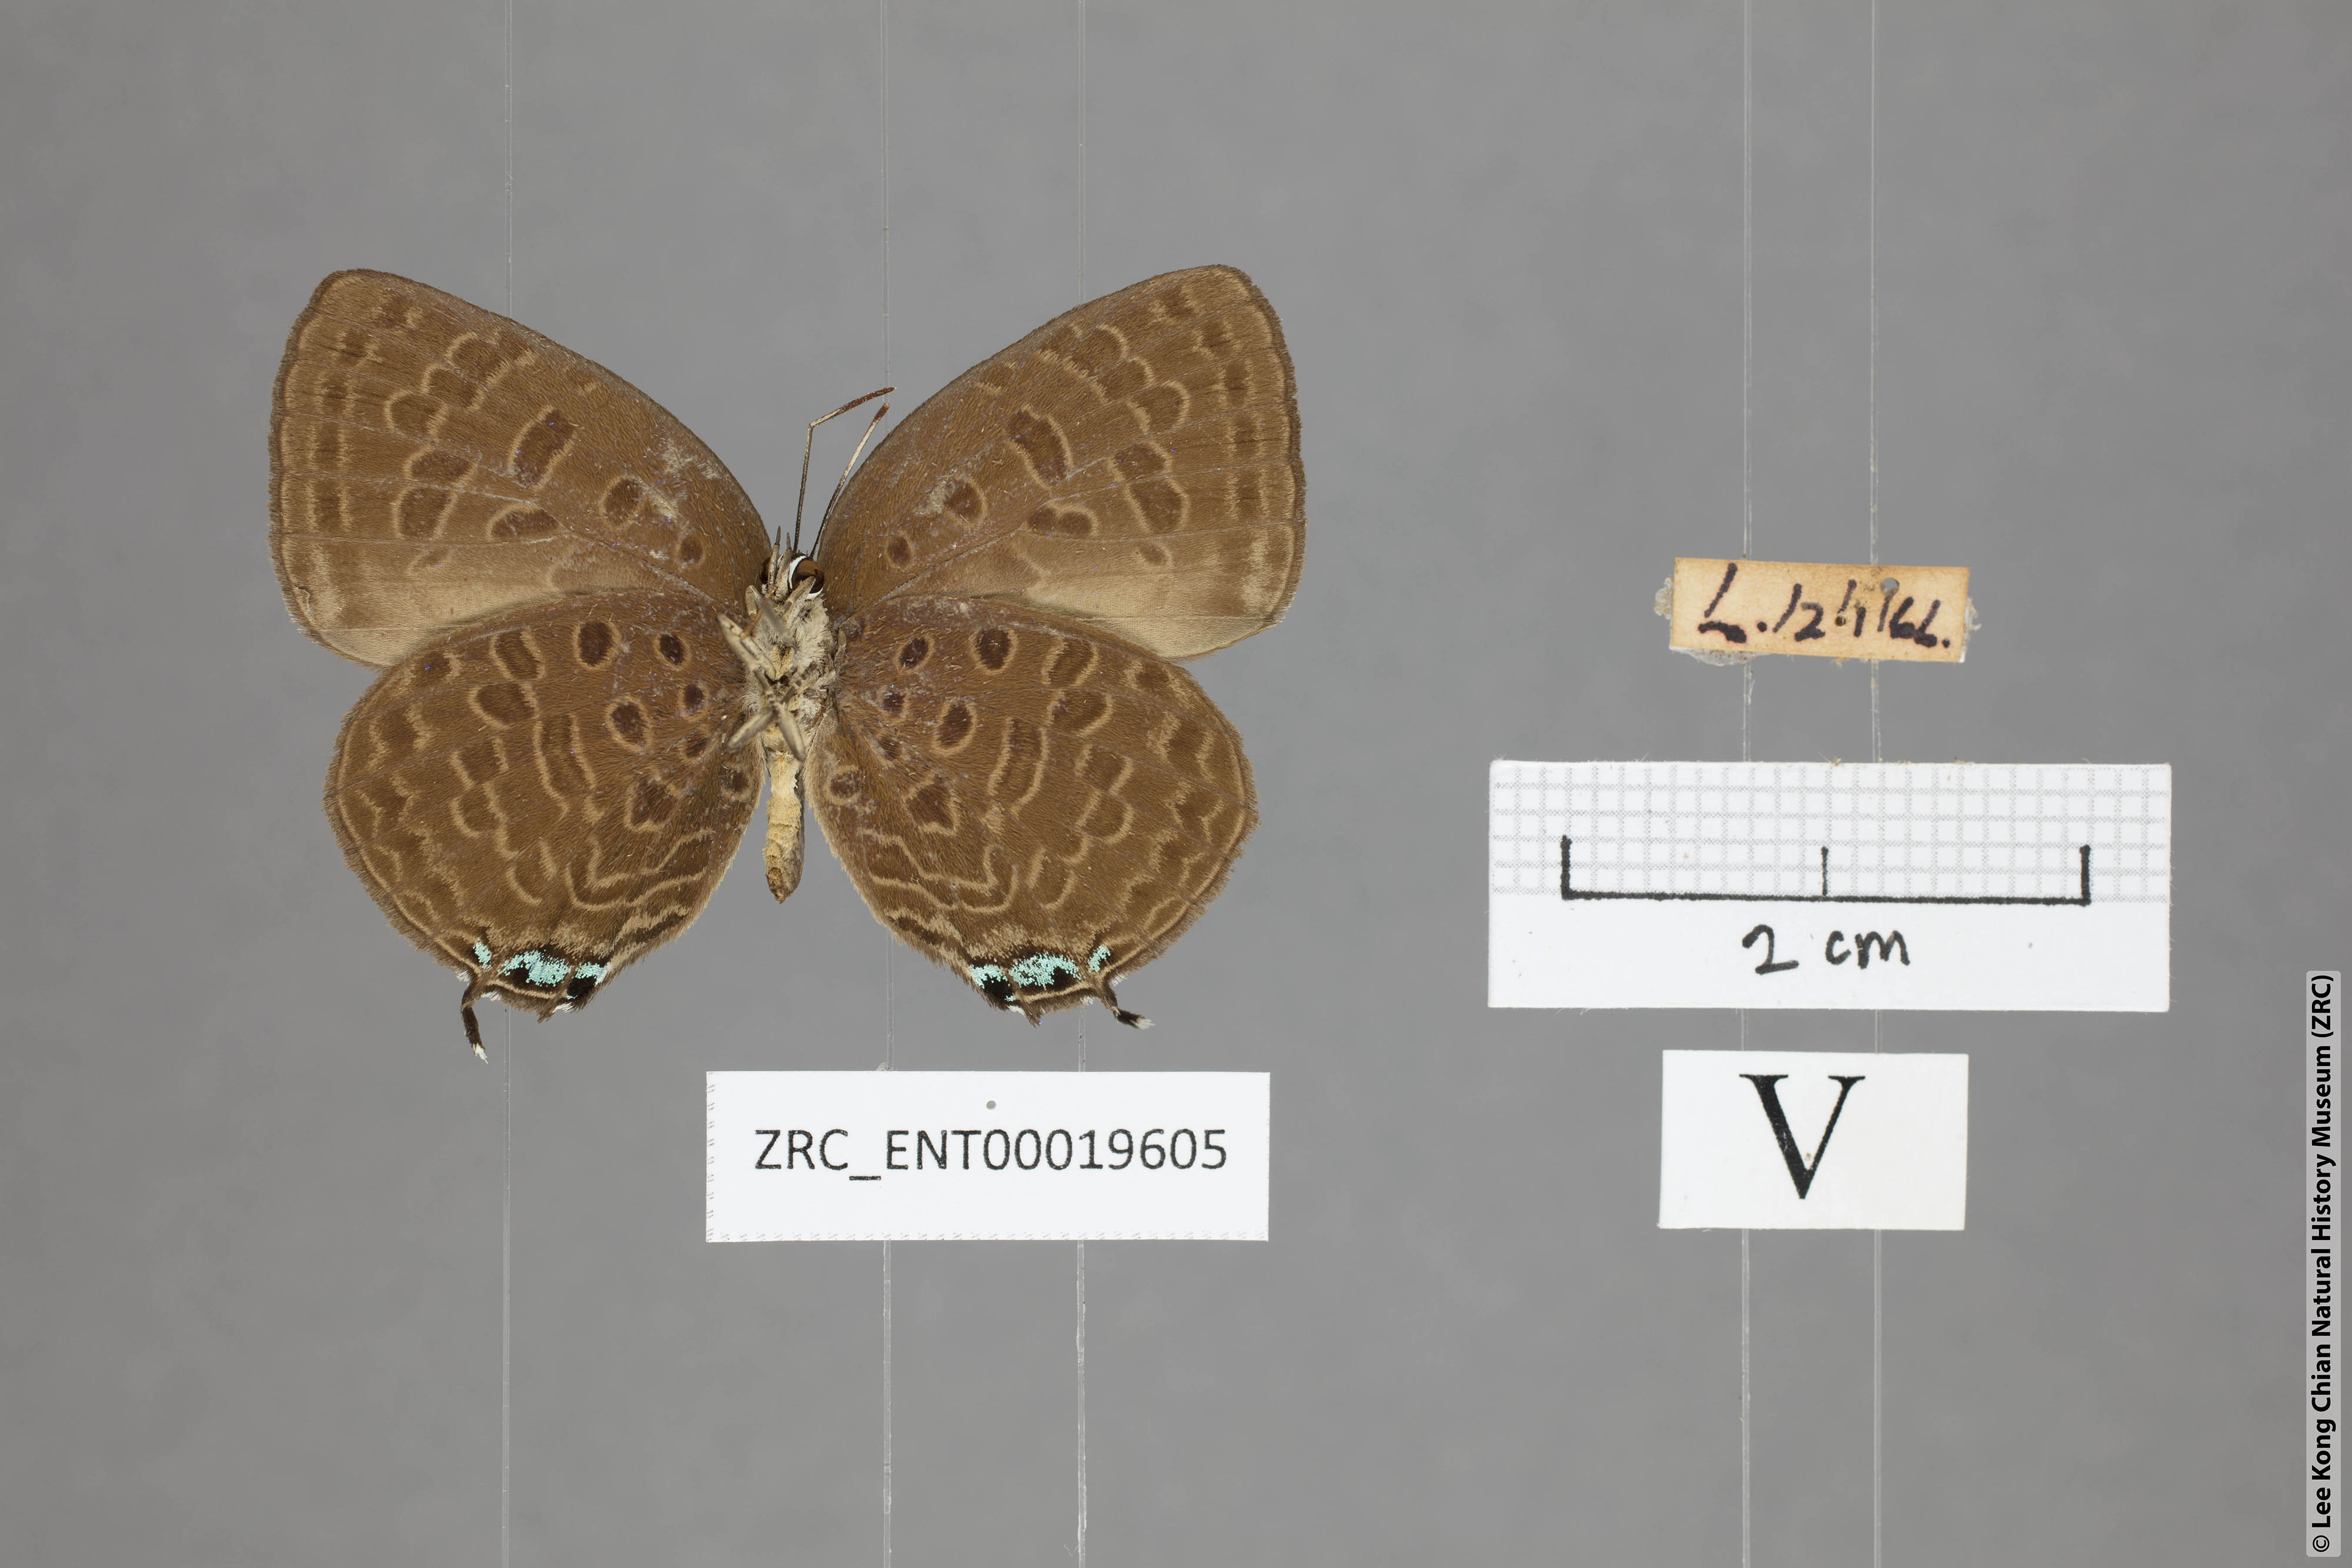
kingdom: Animalia
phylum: Arthropoda
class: Insecta
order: Lepidoptera
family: Lycaenidae
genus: Arhopala
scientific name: Arhopala atosia
